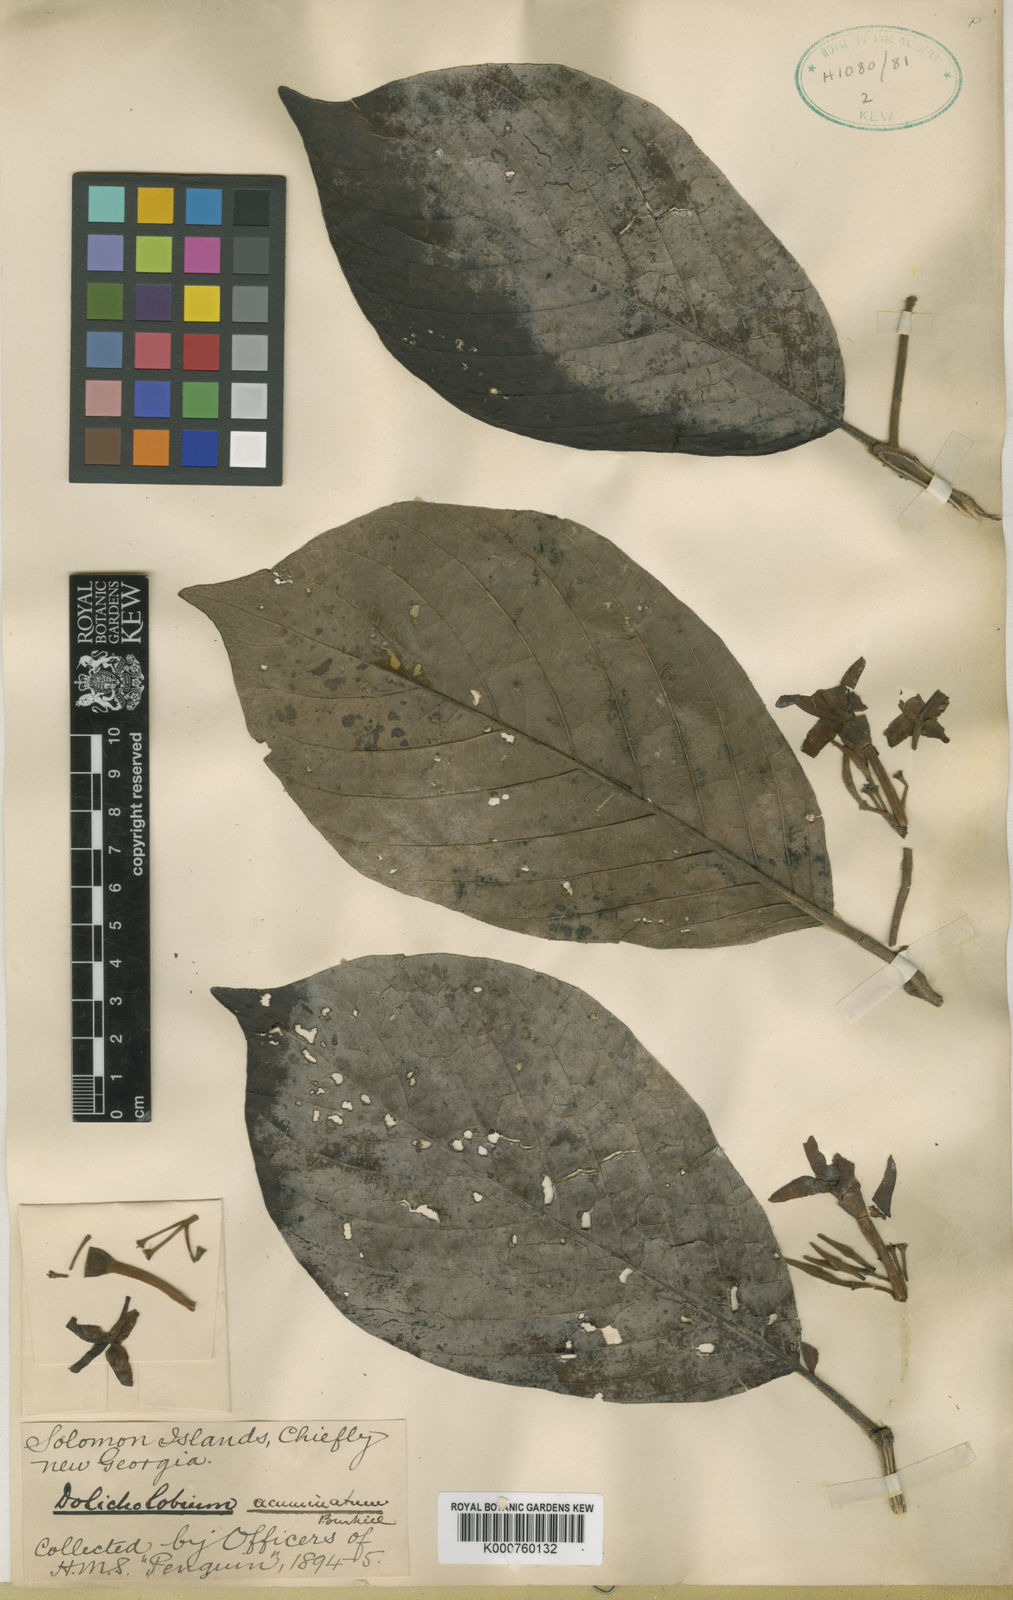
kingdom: Plantae
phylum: Tracheophyta
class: Magnoliopsida
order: Gentianales
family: Rubiaceae
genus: Dolicholobium
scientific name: Dolicholobium acuminatum
